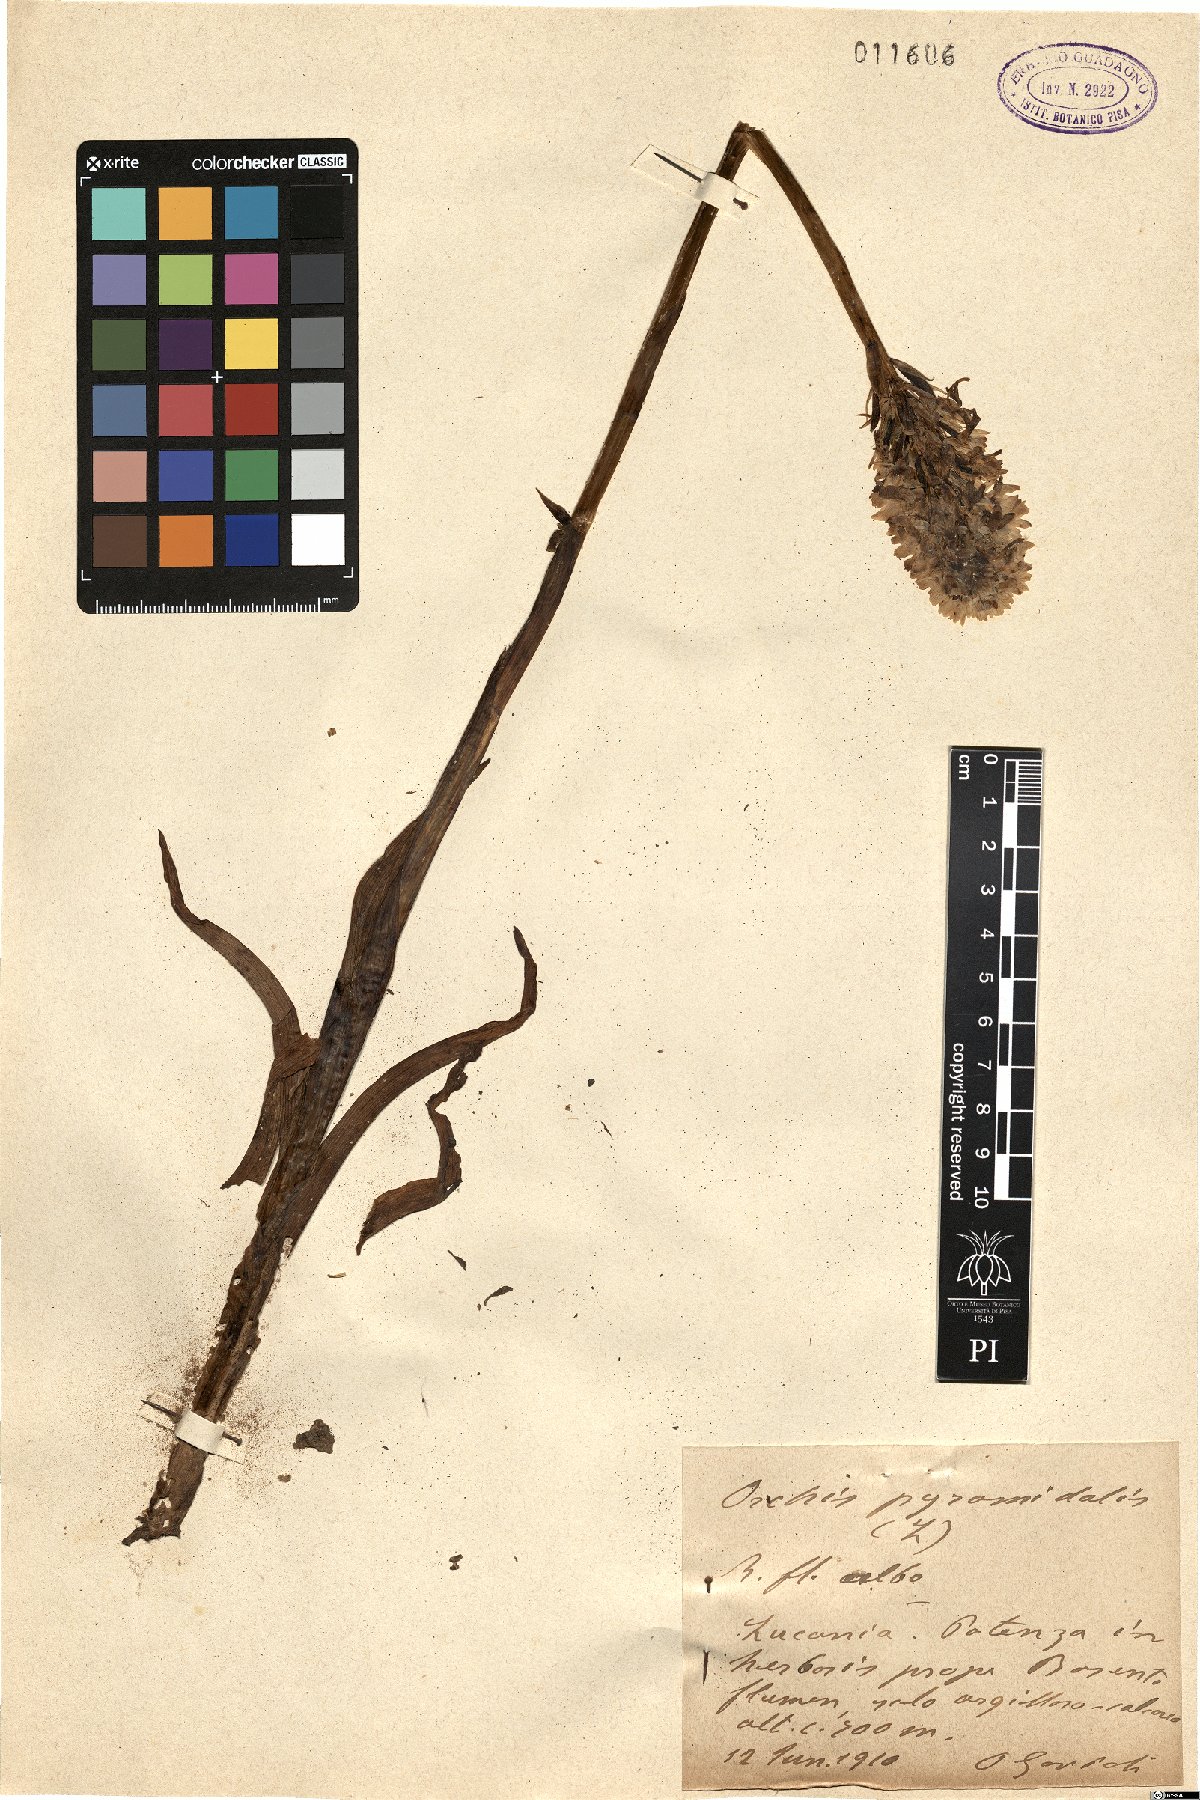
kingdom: Plantae
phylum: Tracheophyta
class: Liliopsida
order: Asparagales
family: Orchidaceae
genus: Anacamptis
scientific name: Anacamptis pyramidalis
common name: Pyramidal orchid
